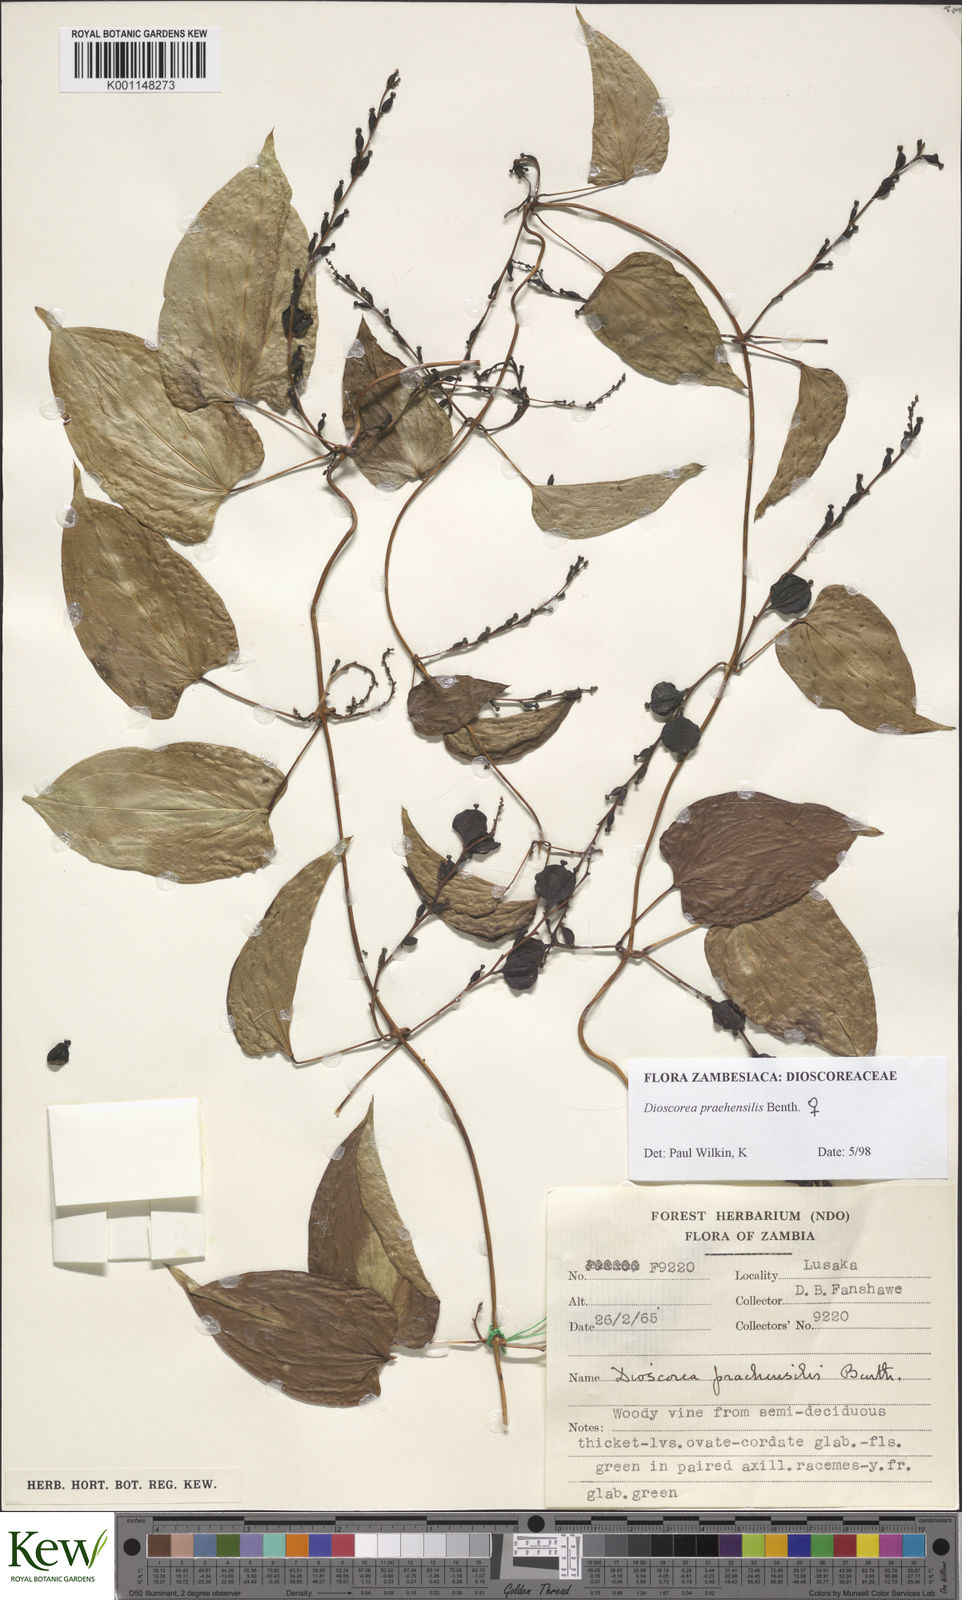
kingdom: Plantae
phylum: Tracheophyta
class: Liliopsida
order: Dioscoreales
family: Dioscoreaceae
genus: Dioscorea
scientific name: Dioscorea praehensilis
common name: Bush yam
